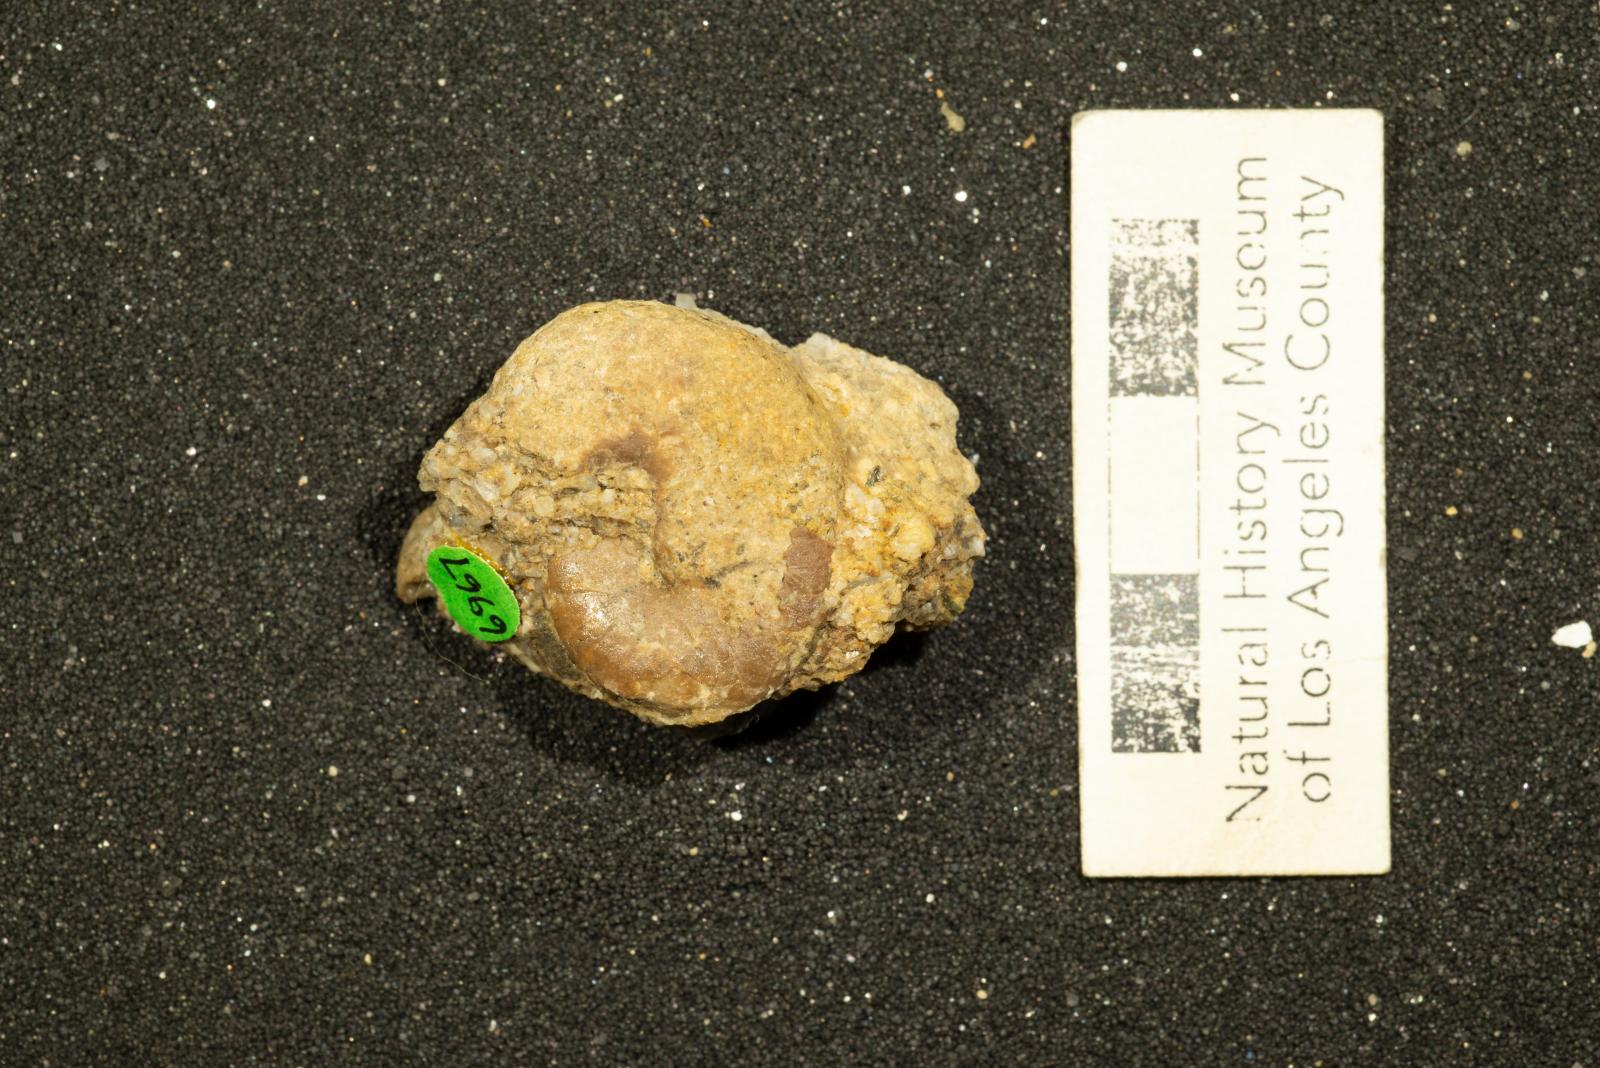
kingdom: Animalia
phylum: Mollusca
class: Cephalopoda
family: Scaphitidae
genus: Yezoites
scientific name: Yezoites planus
